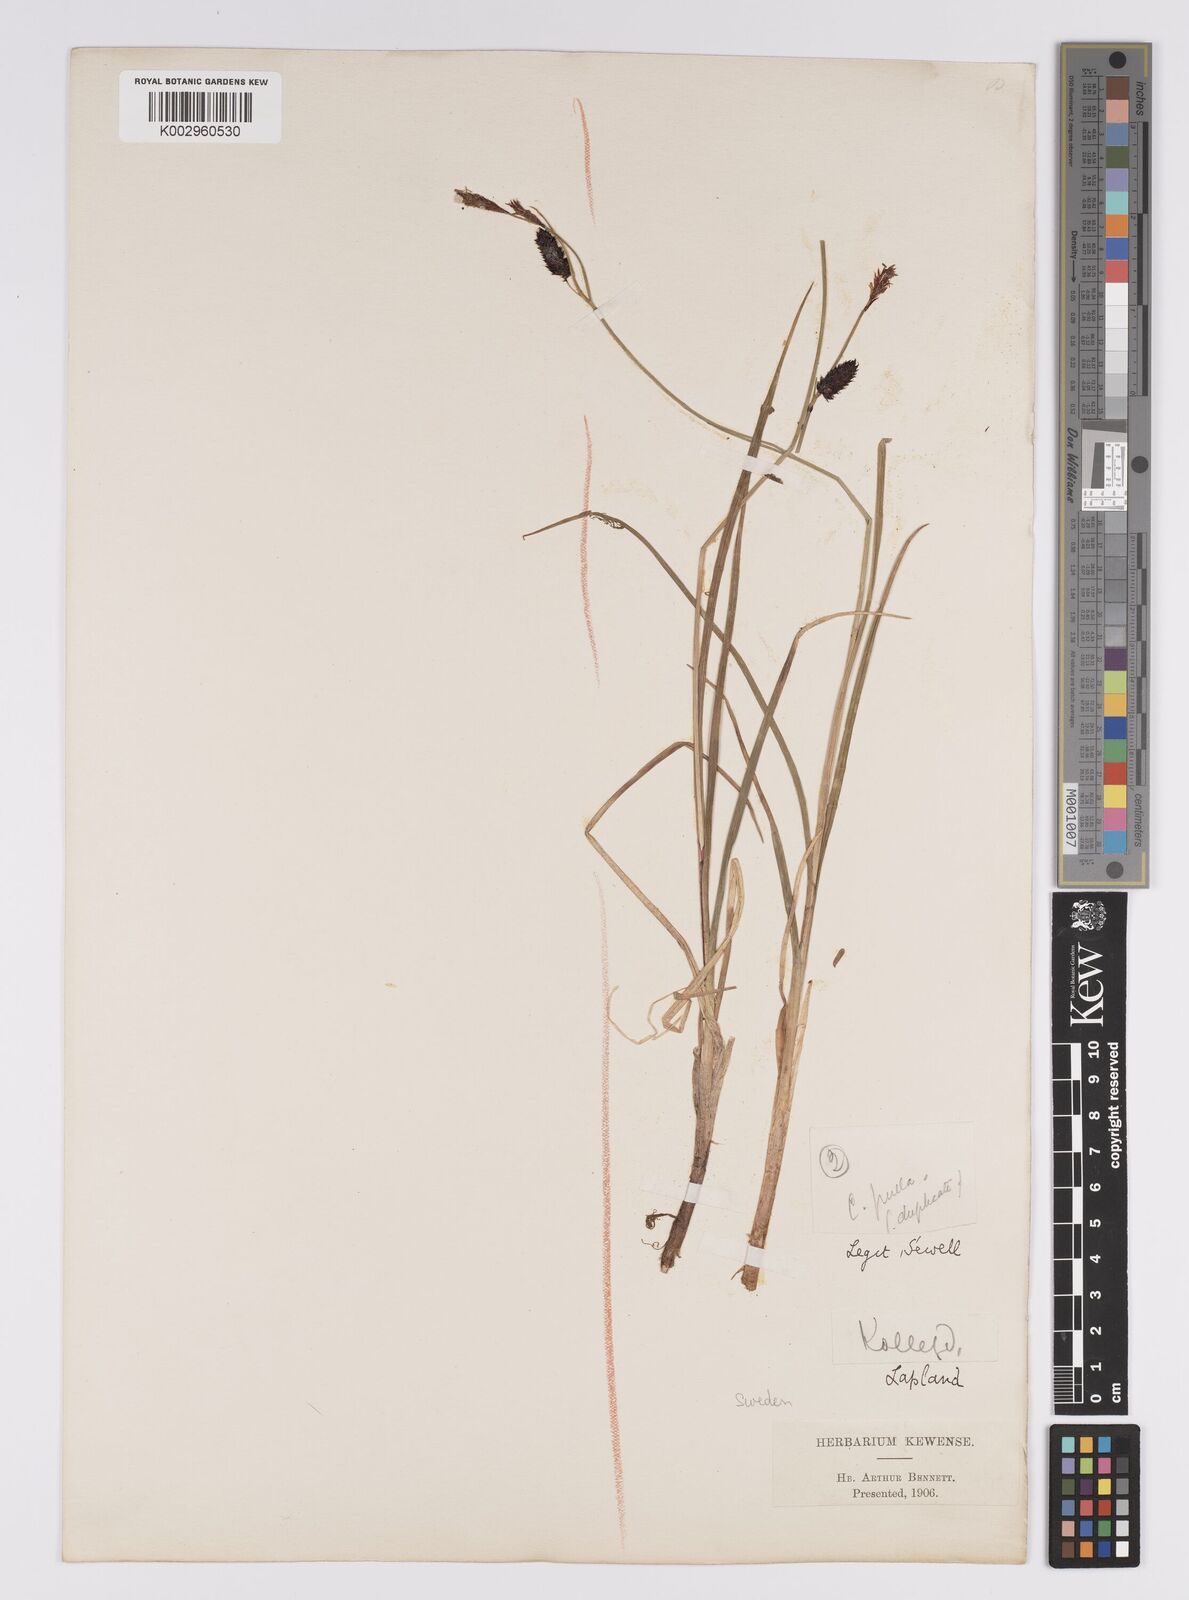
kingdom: Plantae
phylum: Tracheophyta
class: Liliopsida
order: Poales
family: Cyperaceae
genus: Carex
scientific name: Carex saxatilis
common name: Russet sedge
